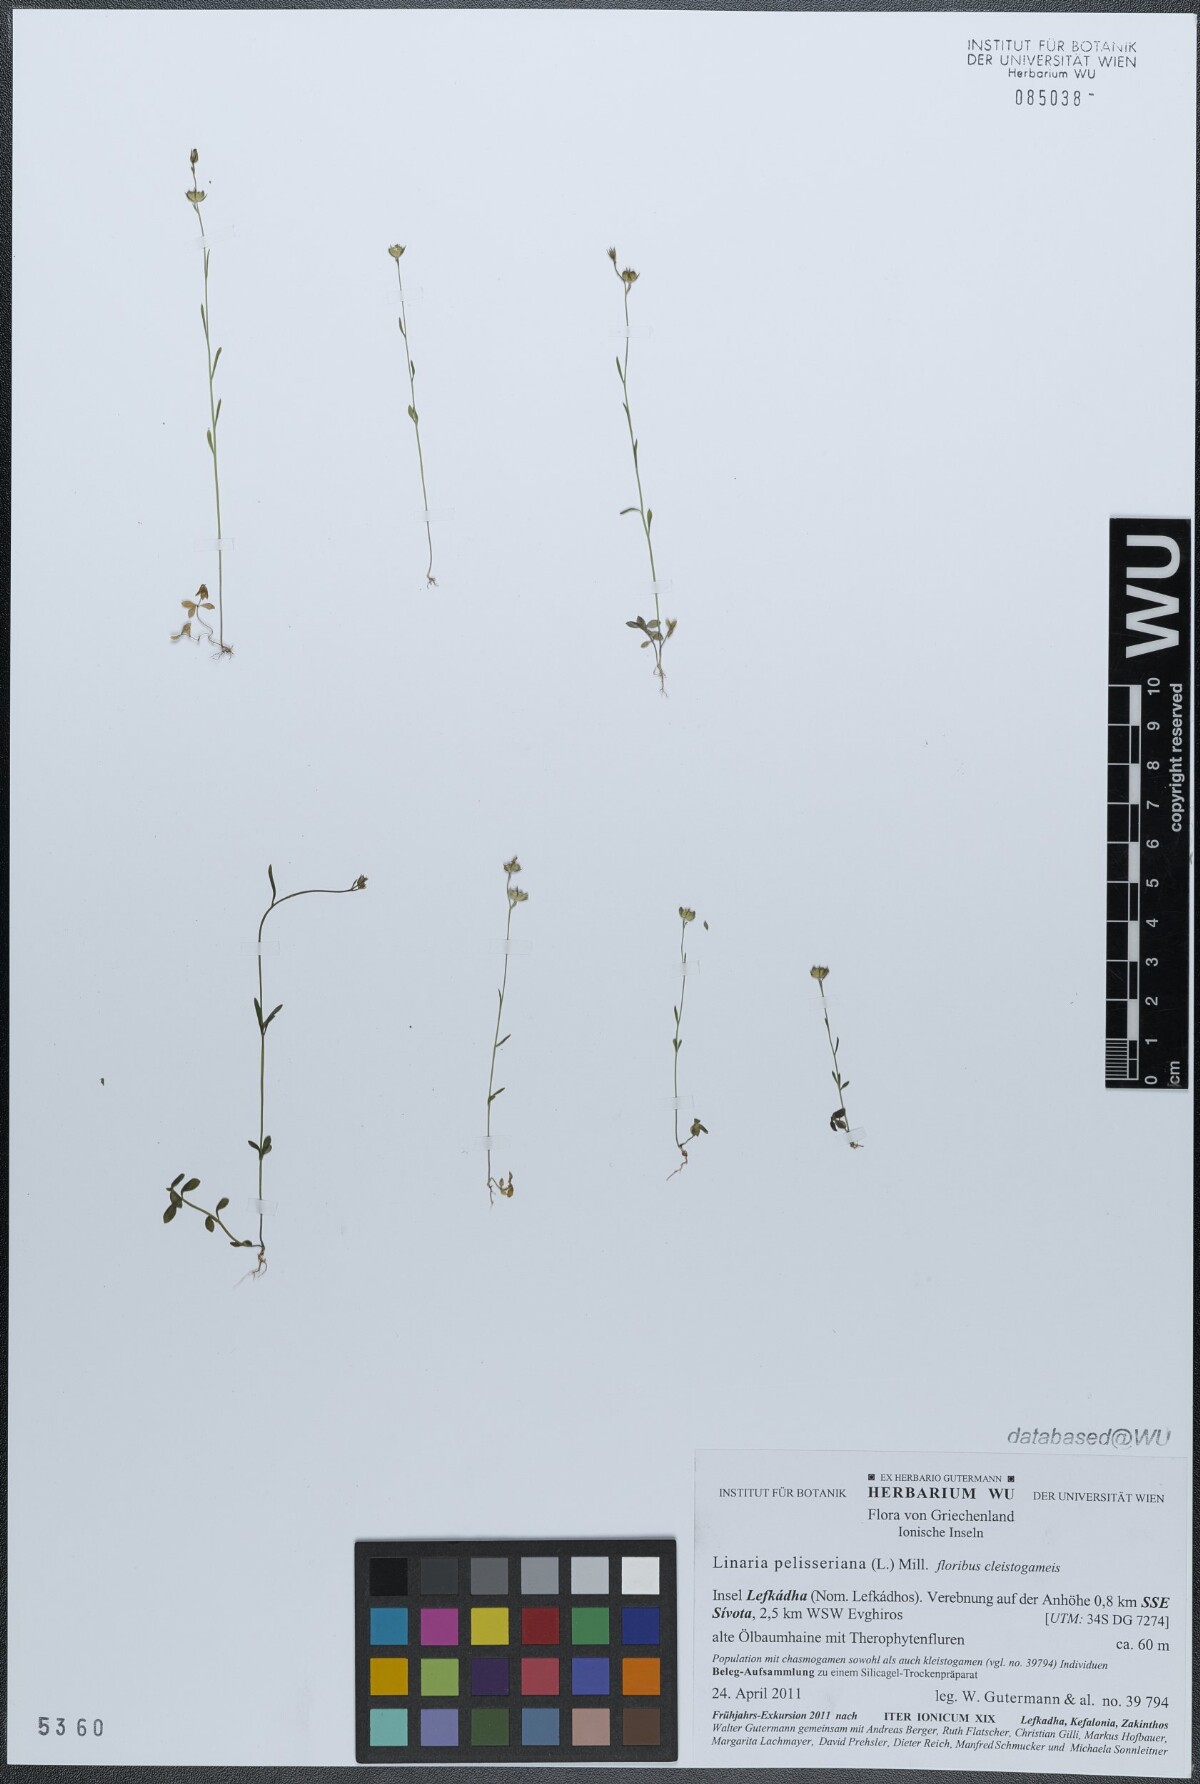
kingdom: Plantae
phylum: Tracheophyta
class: Magnoliopsida
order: Lamiales
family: Plantaginaceae
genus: Linaria
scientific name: Linaria pelisseriana
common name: Jersey toadflax
